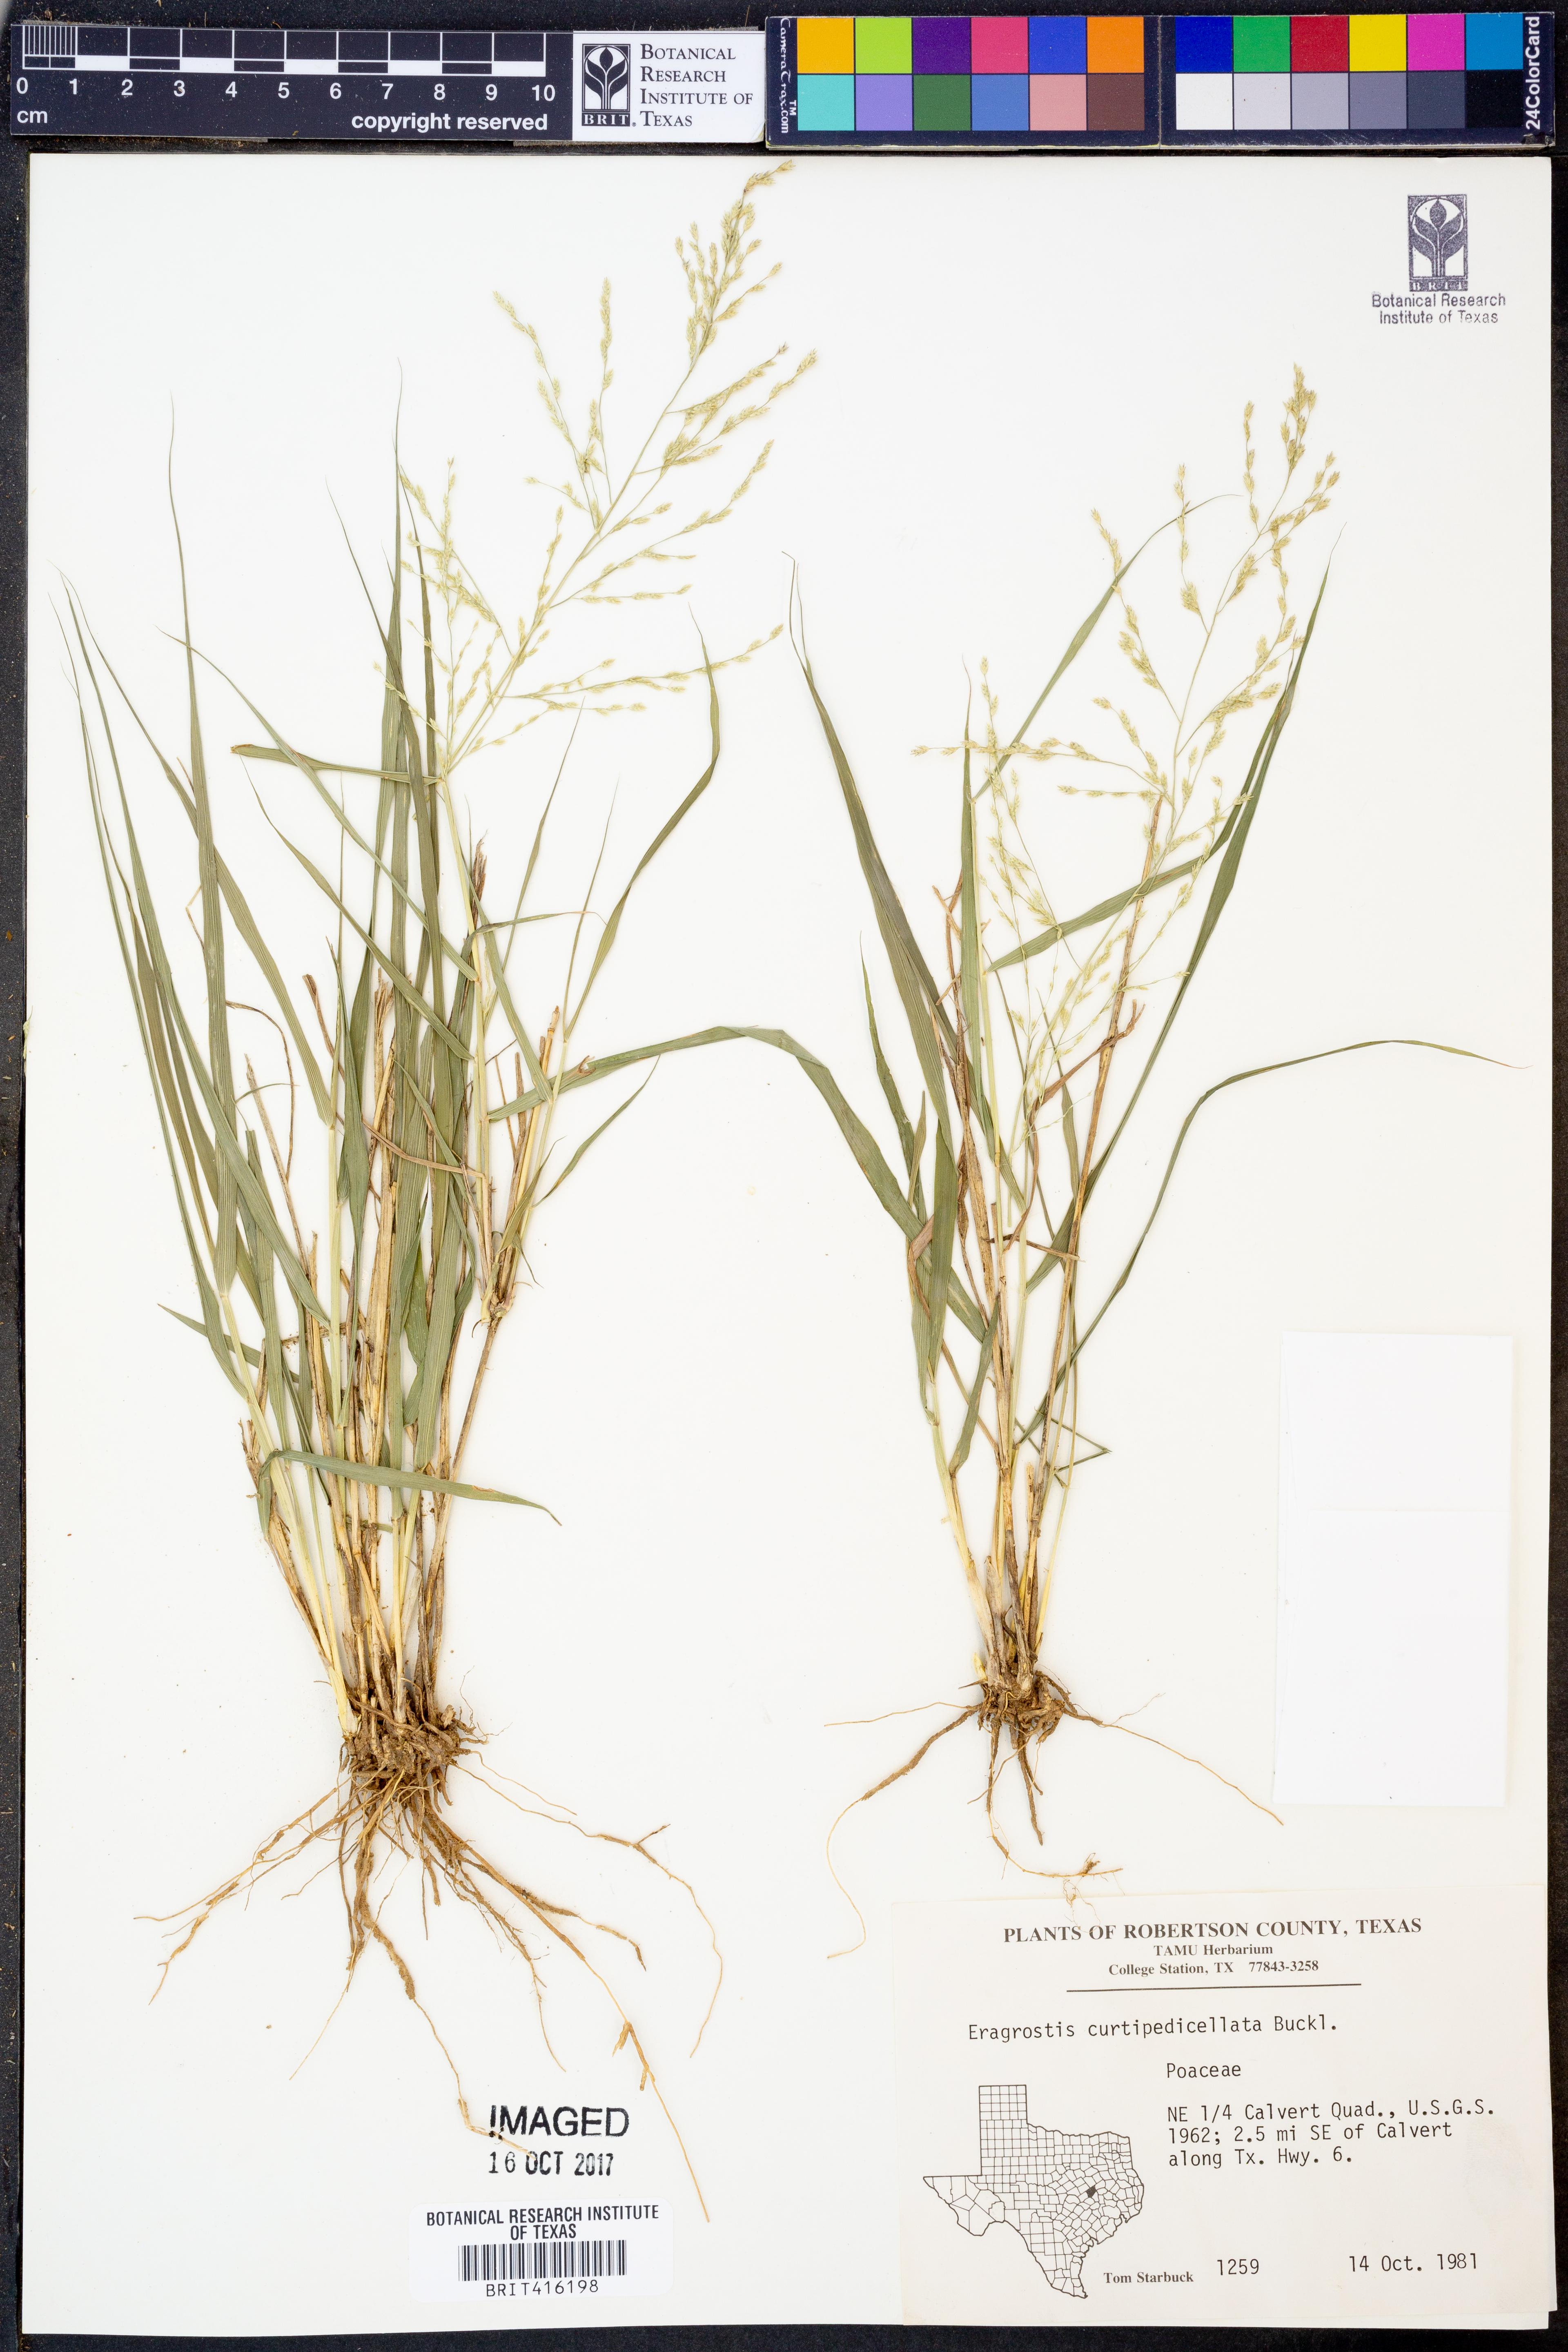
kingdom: Plantae
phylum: Tracheophyta
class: Liliopsida
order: Poales
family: Poaceae
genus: Eragrostis
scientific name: Eragrostis curtipedicellata
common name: Gummy love grass
